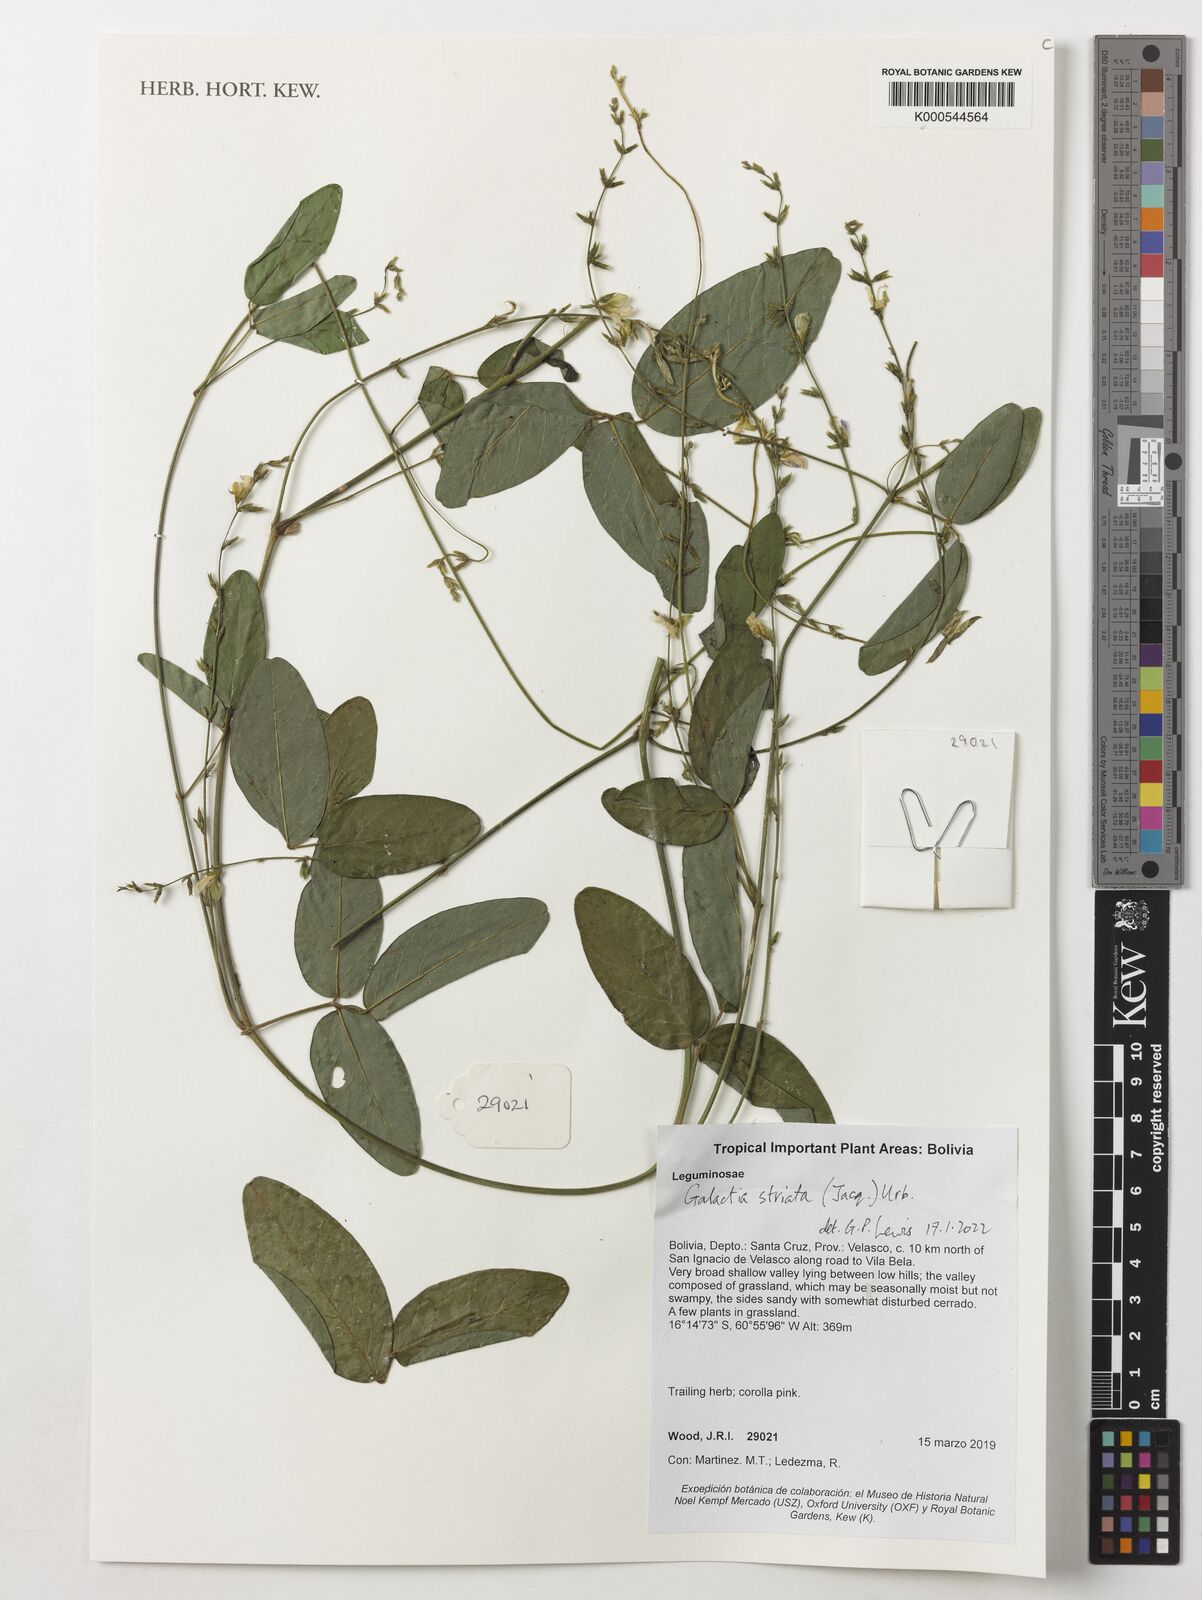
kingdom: Plantae
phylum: Tracheophyta
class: Magnoliopsida
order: Fabales
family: Fabaceae
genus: Galactia
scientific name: Galactia striata
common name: Florida hammock milkpea
